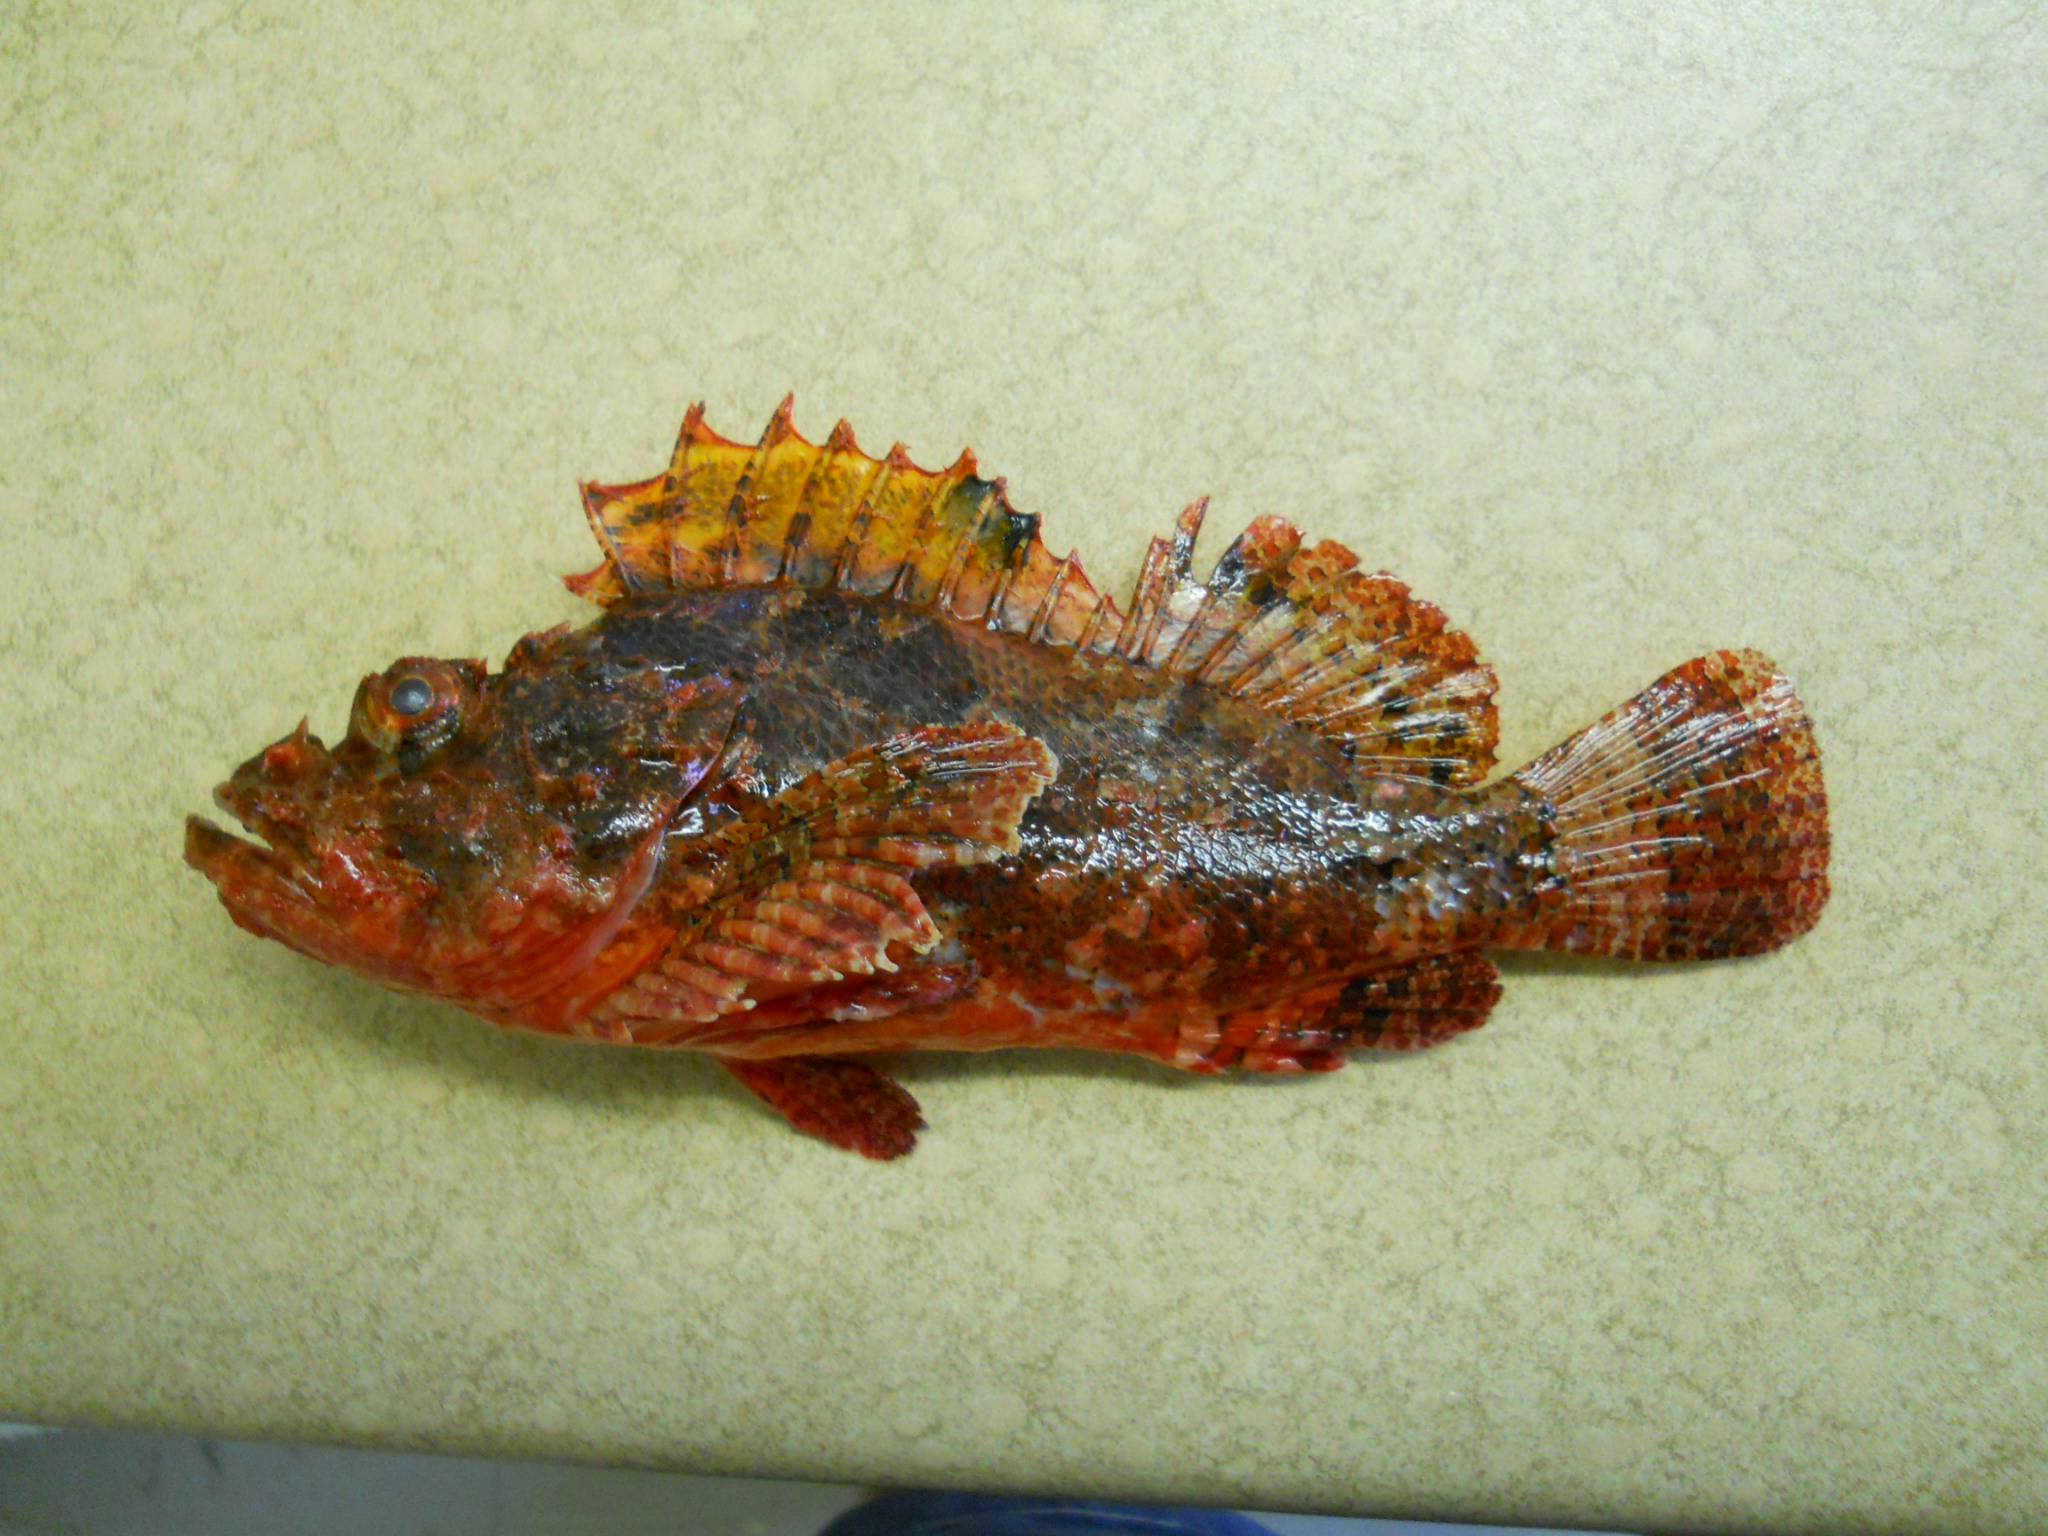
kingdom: Animalia
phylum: Chordata
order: Scorpaeniformes
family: Scorpaenidae
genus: Scorpaenopsis
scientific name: Scorpaenopsis venosa
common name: Raggy scorpionfish
